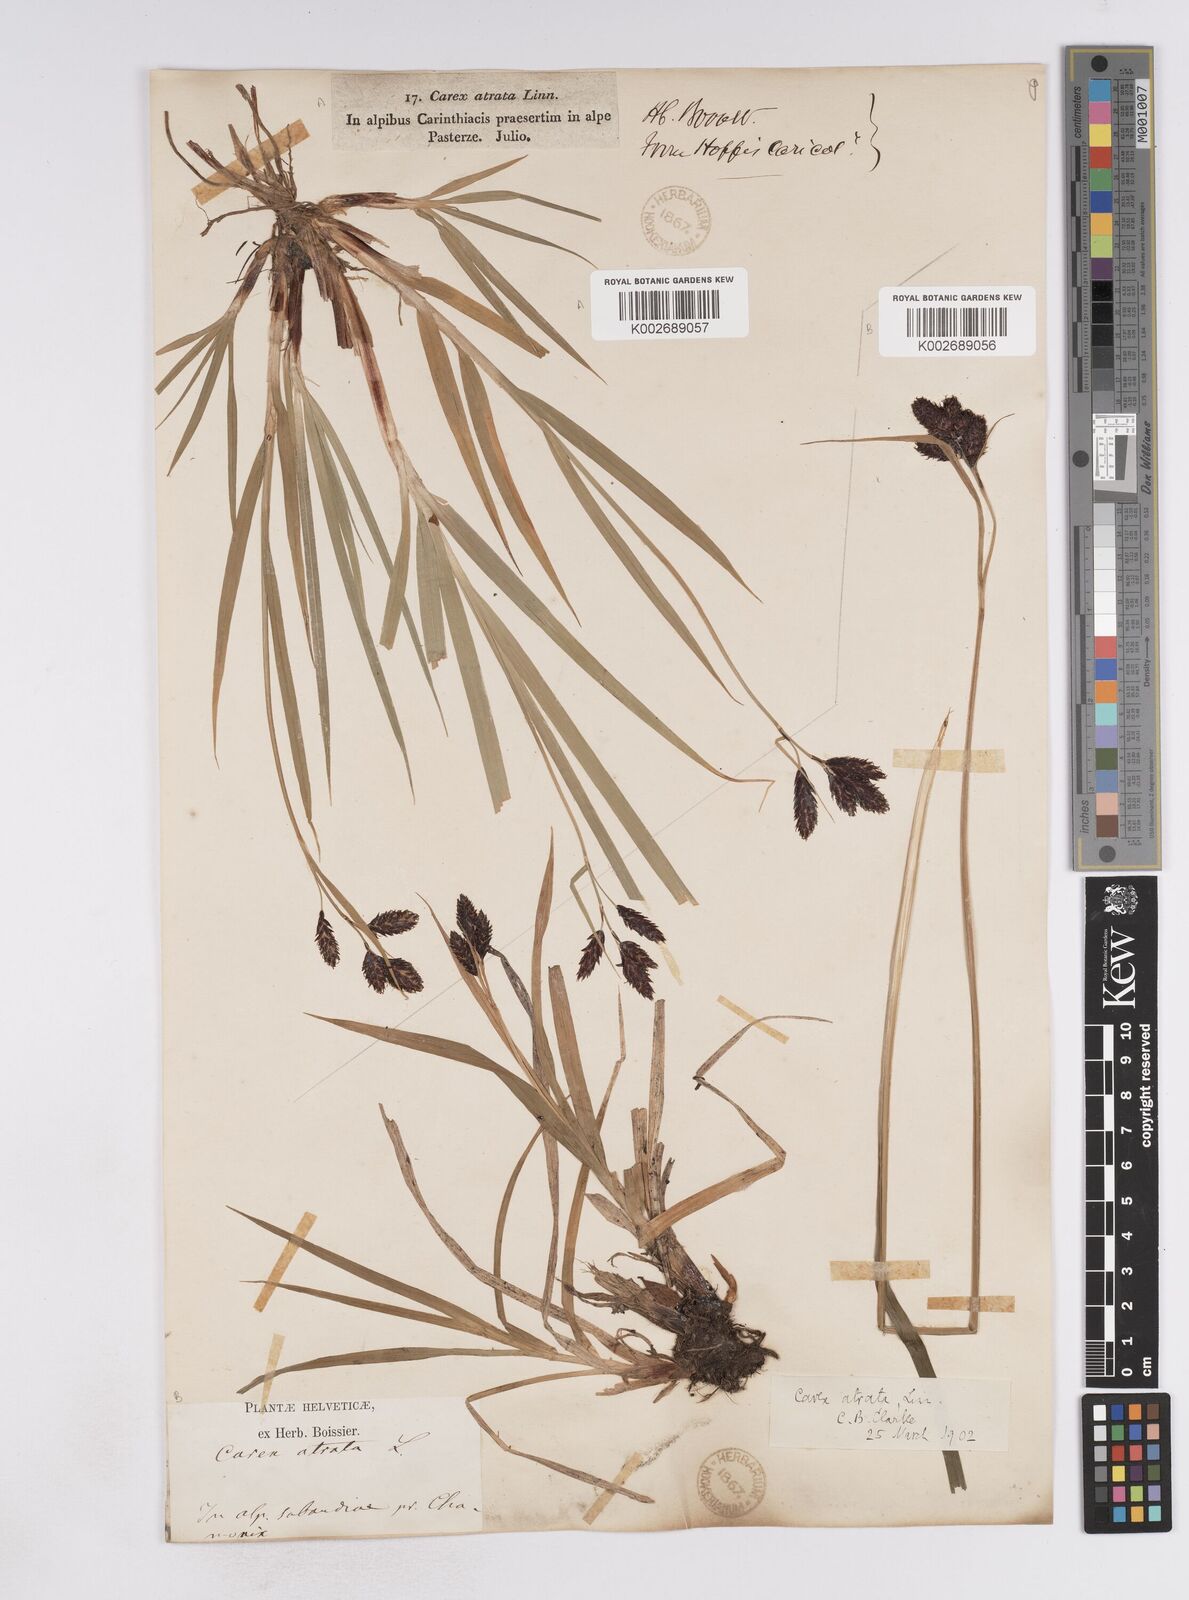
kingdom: Plantae
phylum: Tracheophyta
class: Liliopsida
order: Poales
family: Cyperaceae
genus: Carex
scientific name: Carex atrata
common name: Black alpine sedge
